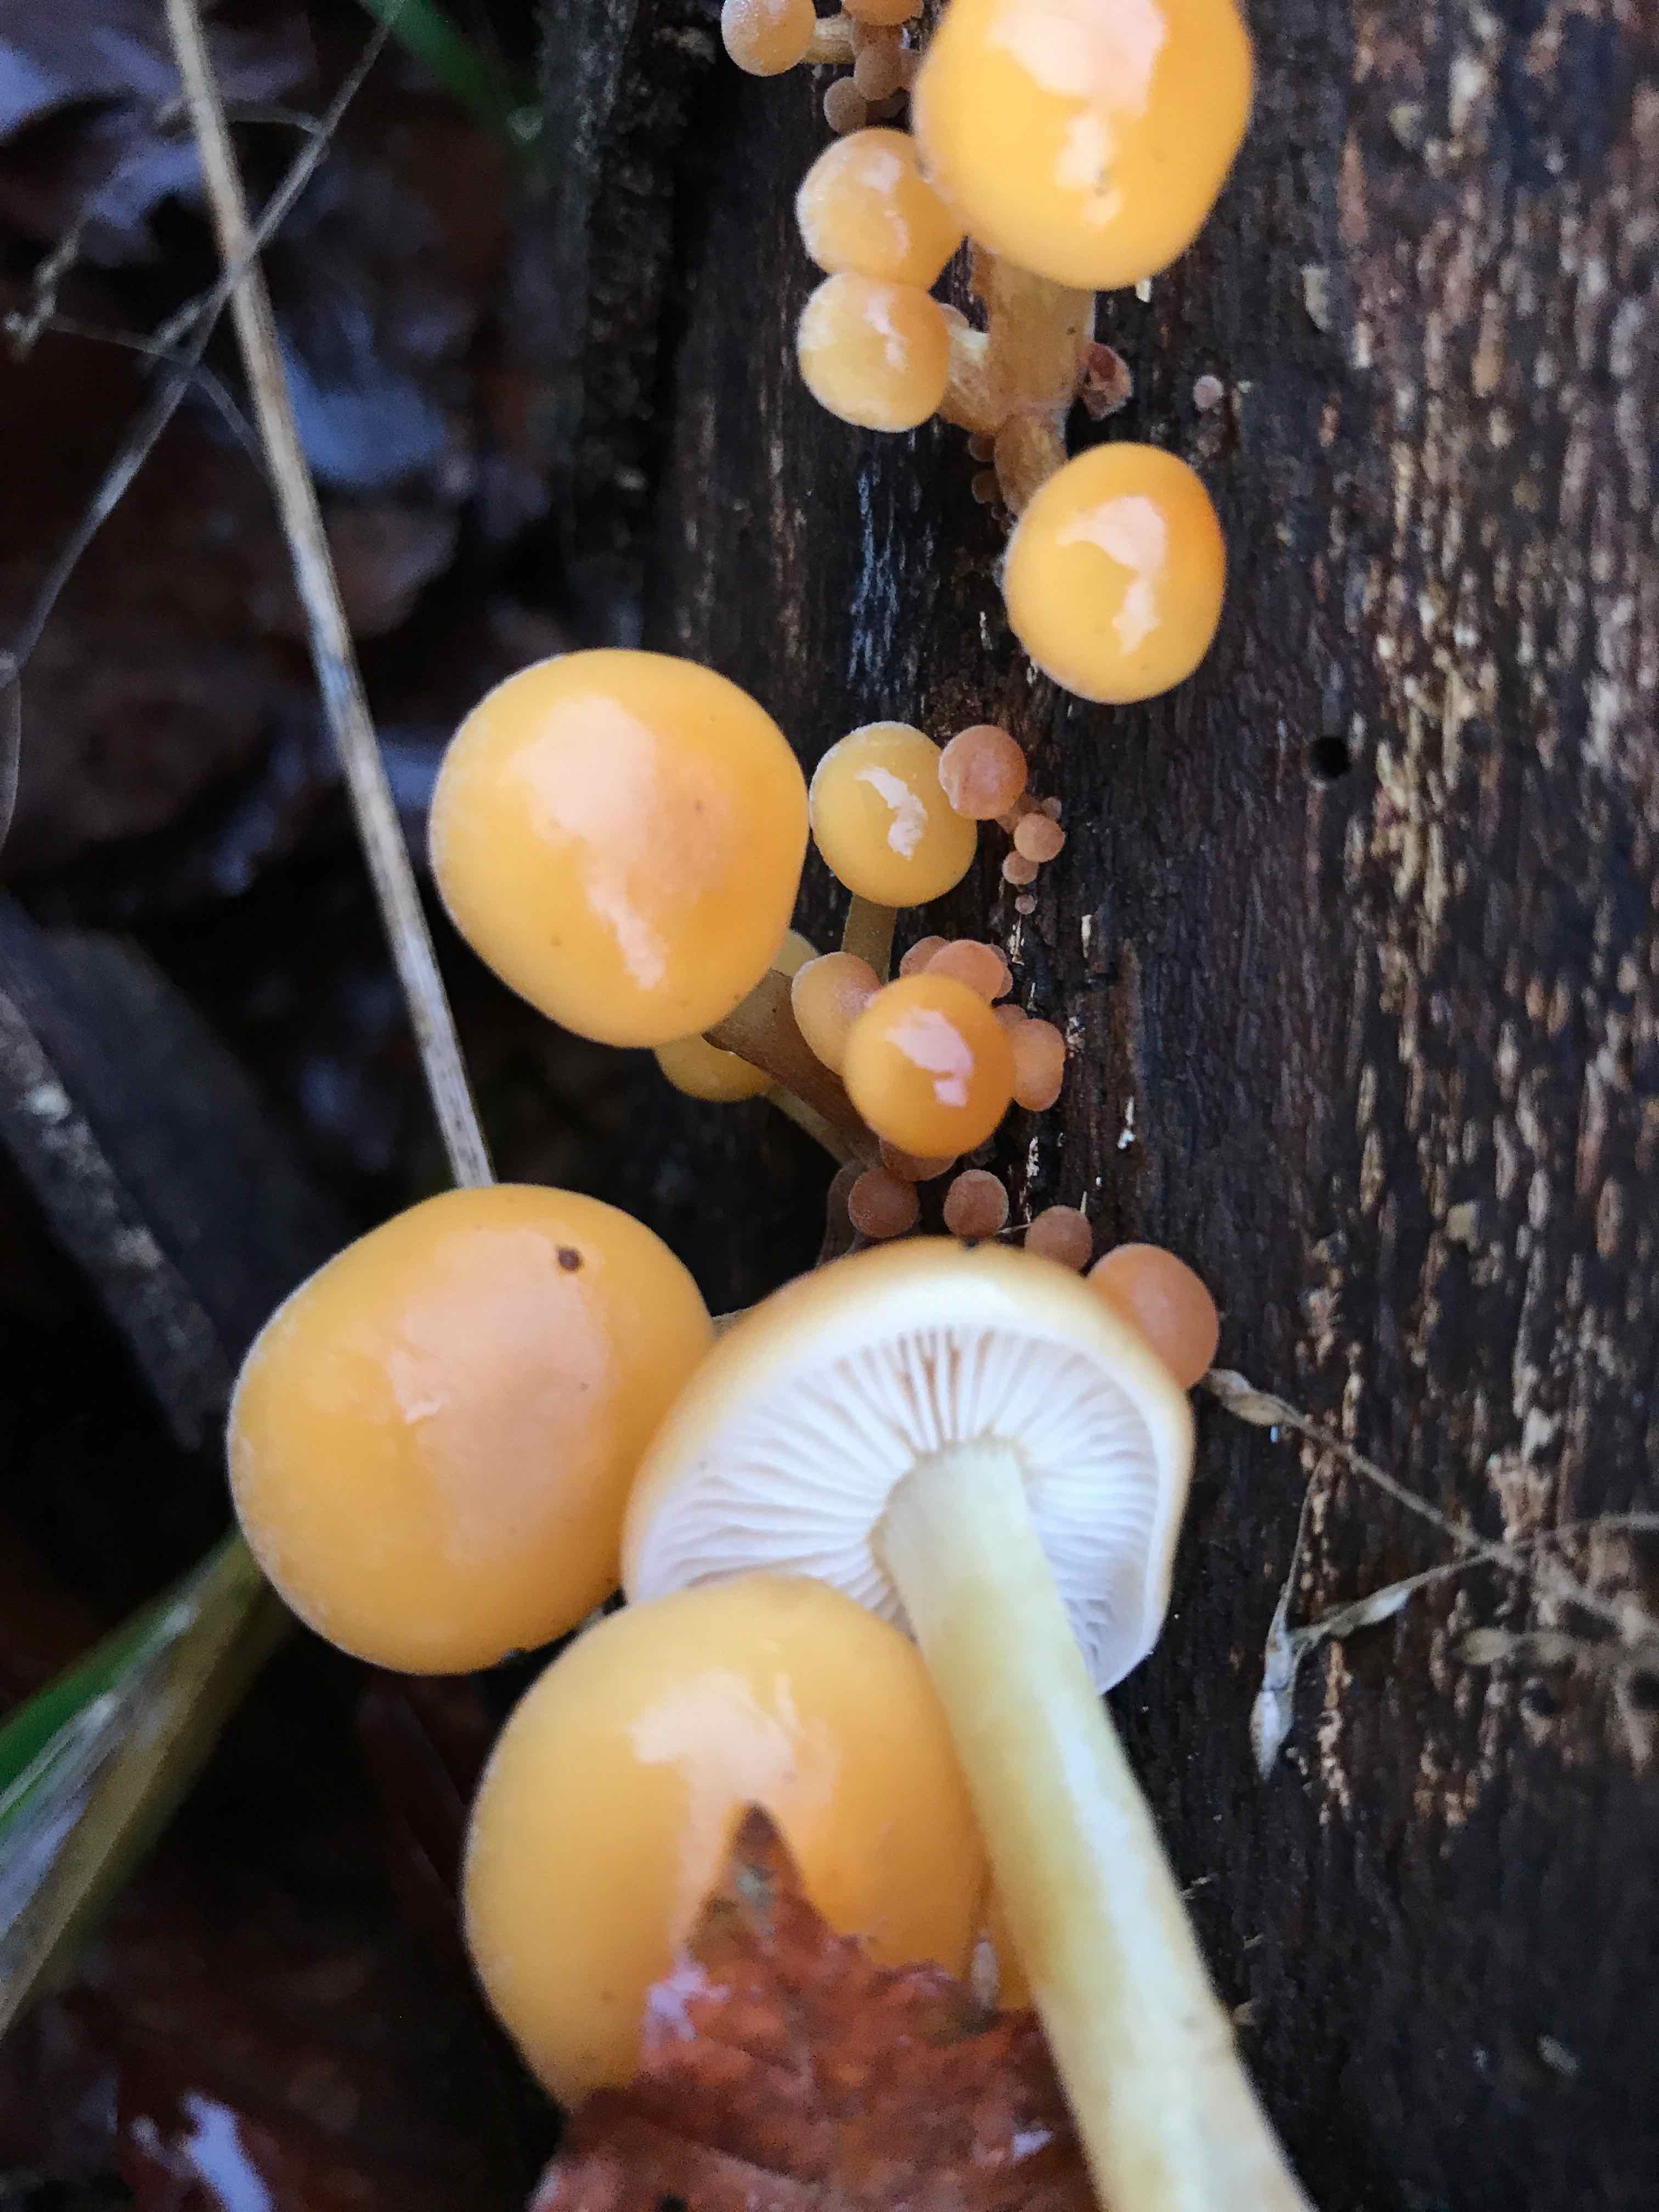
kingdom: Fungi
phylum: Basidiomycota
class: Agaricomycetes
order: Agaricales
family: Physalacriaceae
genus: Flammulina
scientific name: Flammulina velutipes
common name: gul fløjlsfod
